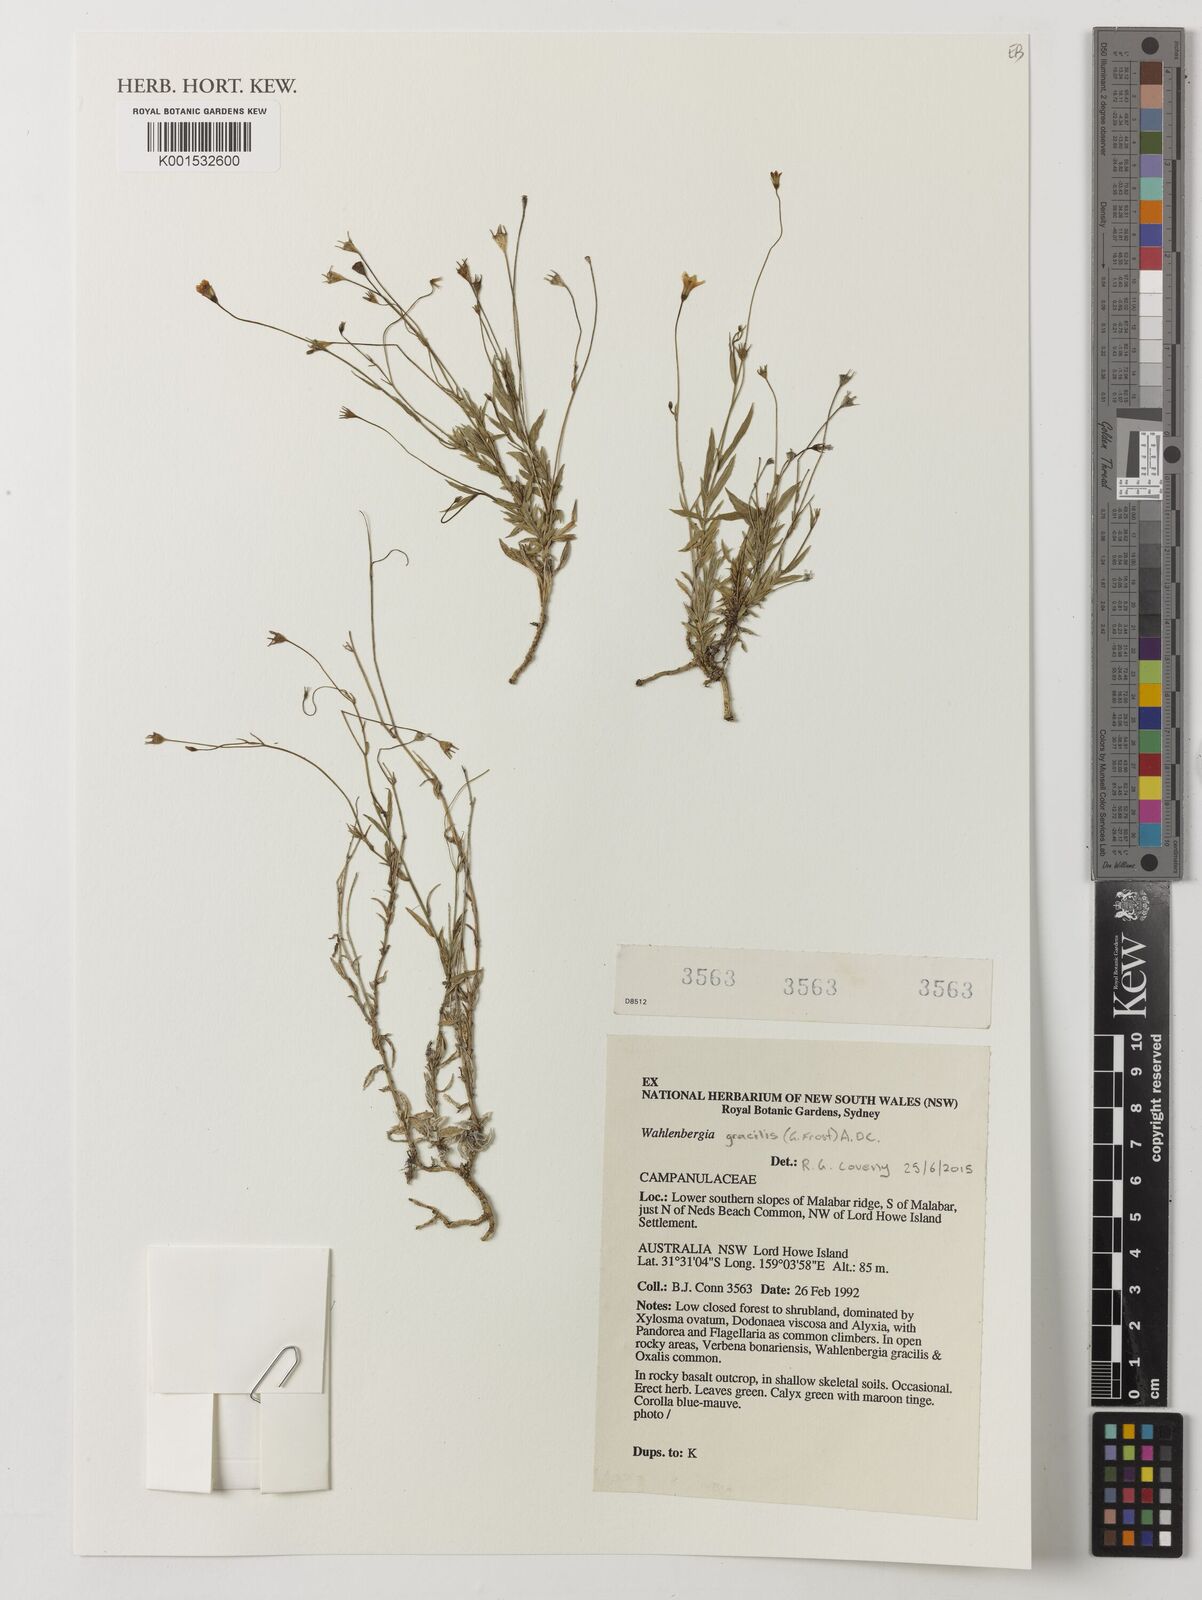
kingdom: Plantae
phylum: Tracheophyta
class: Magnoliopsida
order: Asterales
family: Campanulaceae
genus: Wahlenbergia
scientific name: Wahlenbergia gracilis
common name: Harebell
